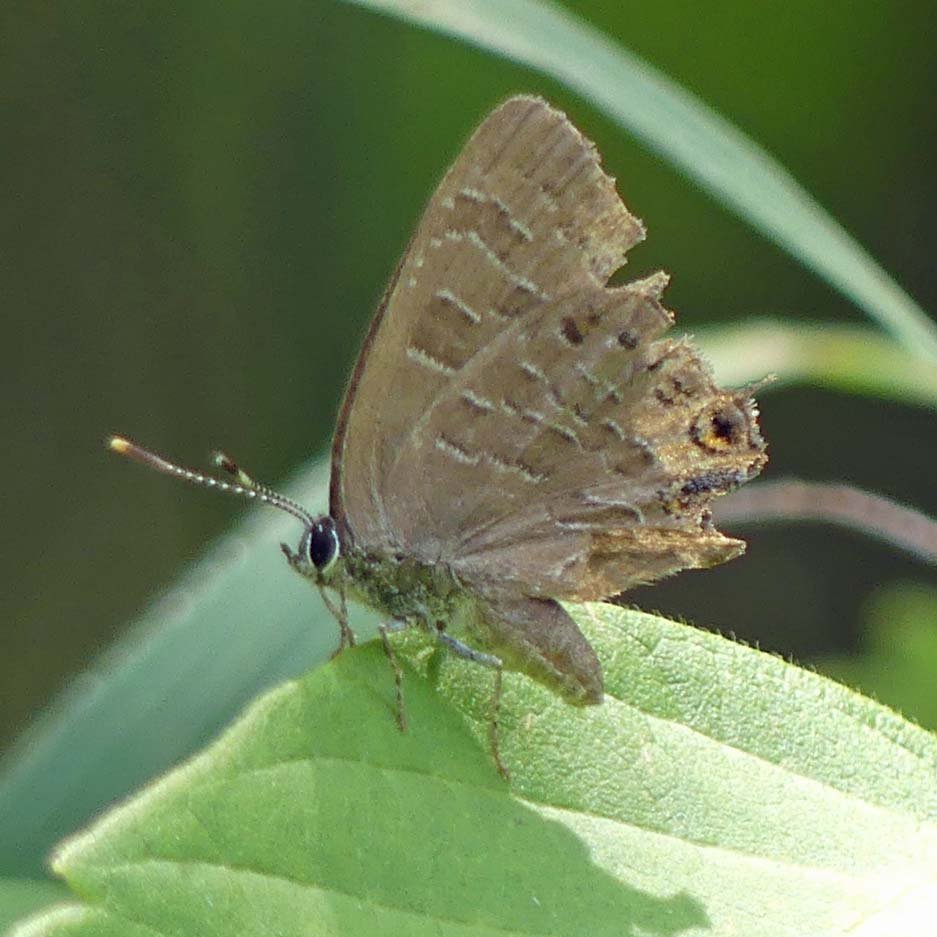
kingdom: Animalia
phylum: Arthropoda
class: Insecta
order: Lepidoptera
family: Lycaenidae
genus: Satyrium
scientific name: Satyrium liparops
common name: Striped Hairstreak
